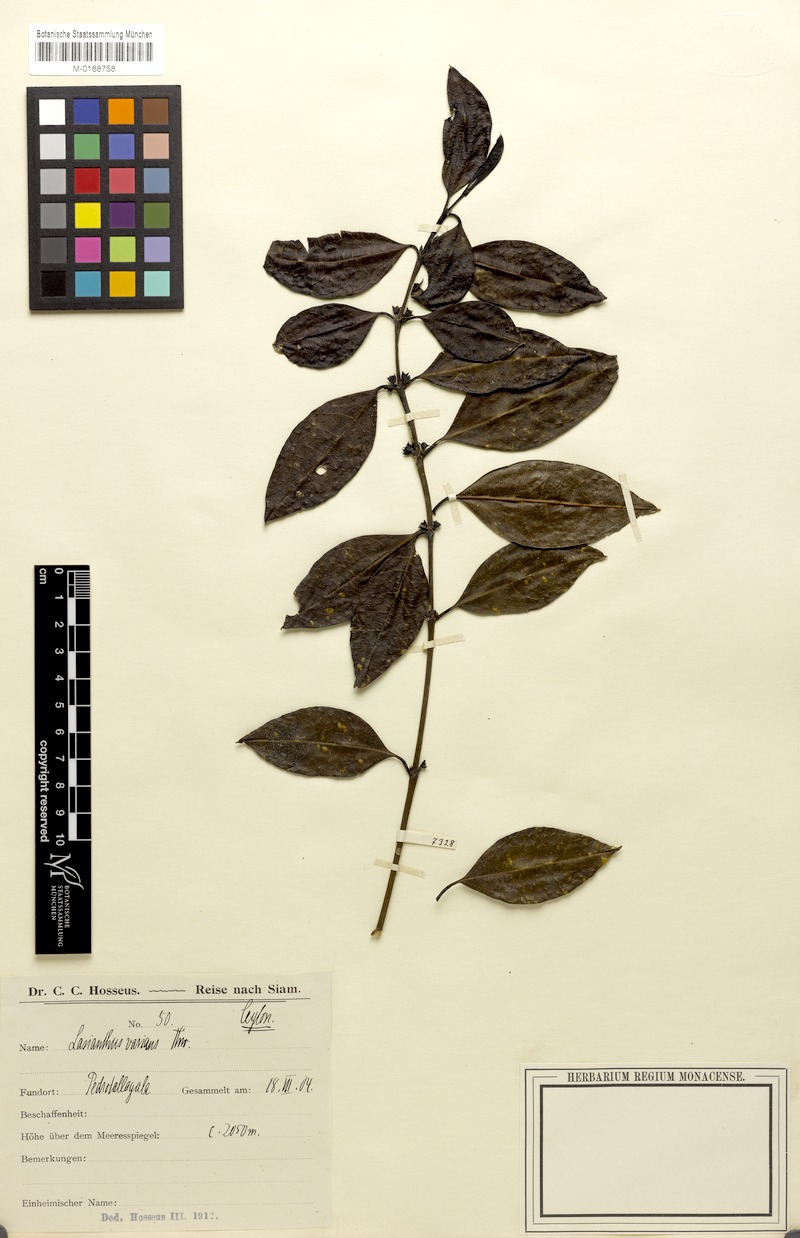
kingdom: Plantae
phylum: Tracheophyta
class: Magnoliopsida
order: Gentianales
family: Rubiaceae
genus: Lasianthus
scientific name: Lasianthus varians
